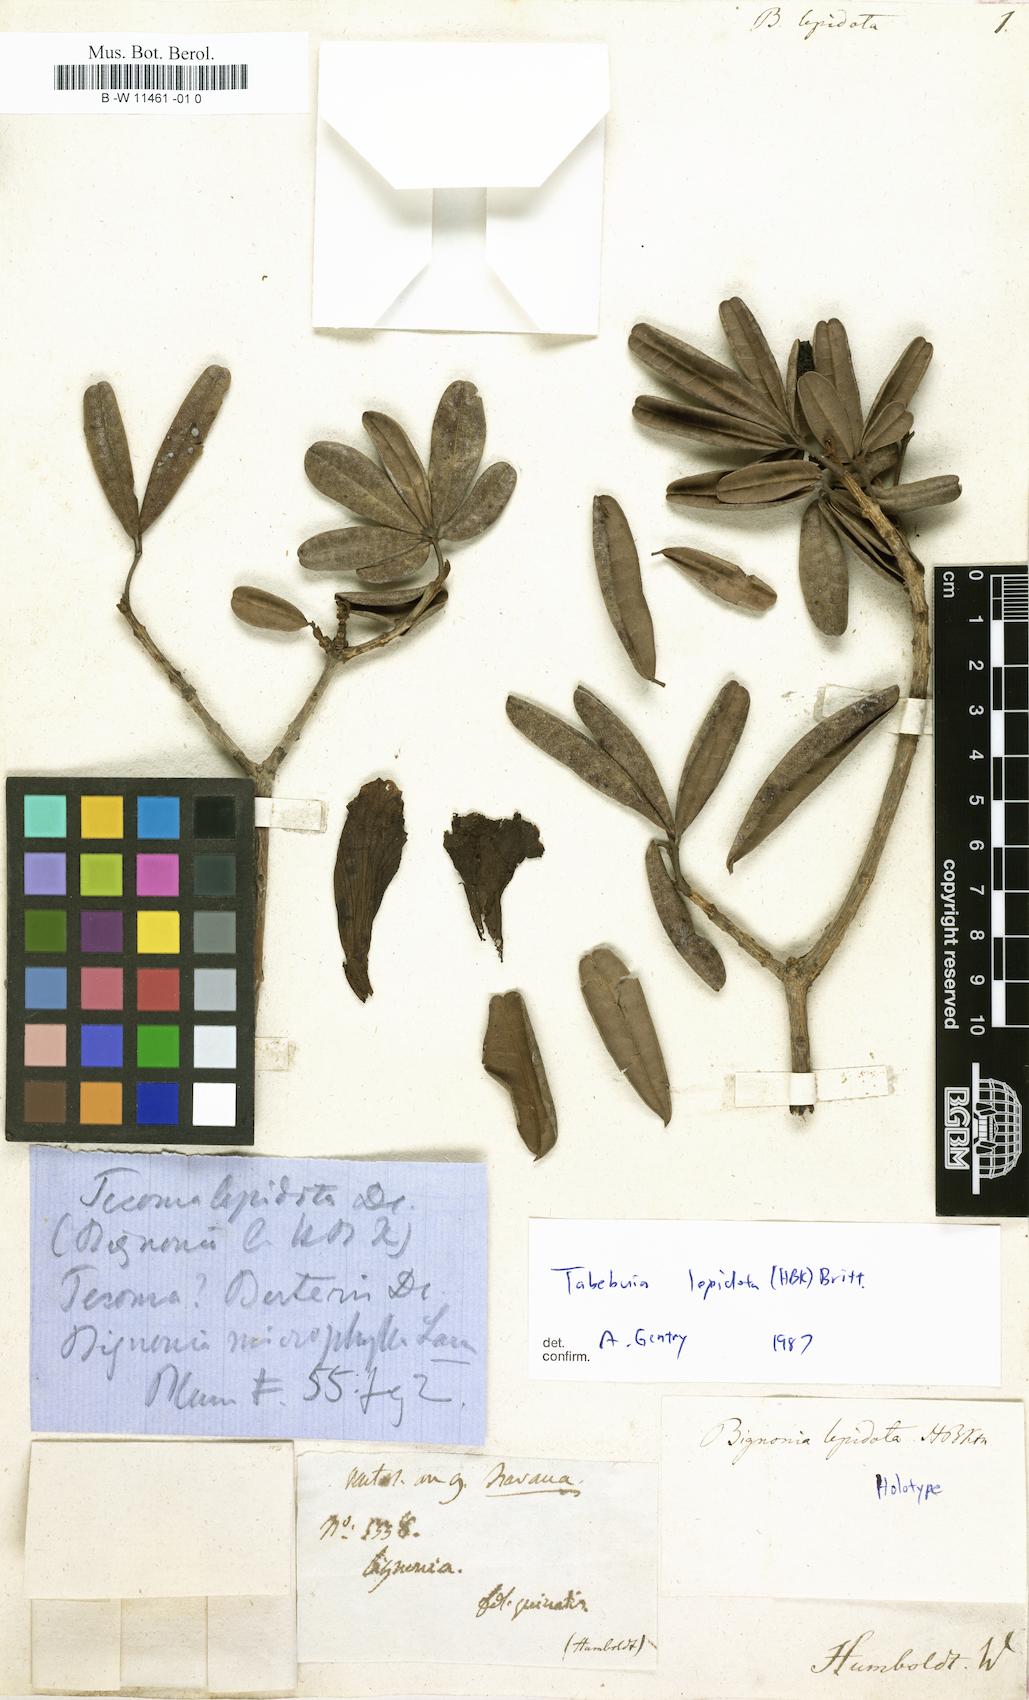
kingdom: Plantae
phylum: Tracheophyta
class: Magnoliopsida
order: Lamiales
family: Bignoniaceae
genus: Tabebuia
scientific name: Tabebuia lepidota
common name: One toe
